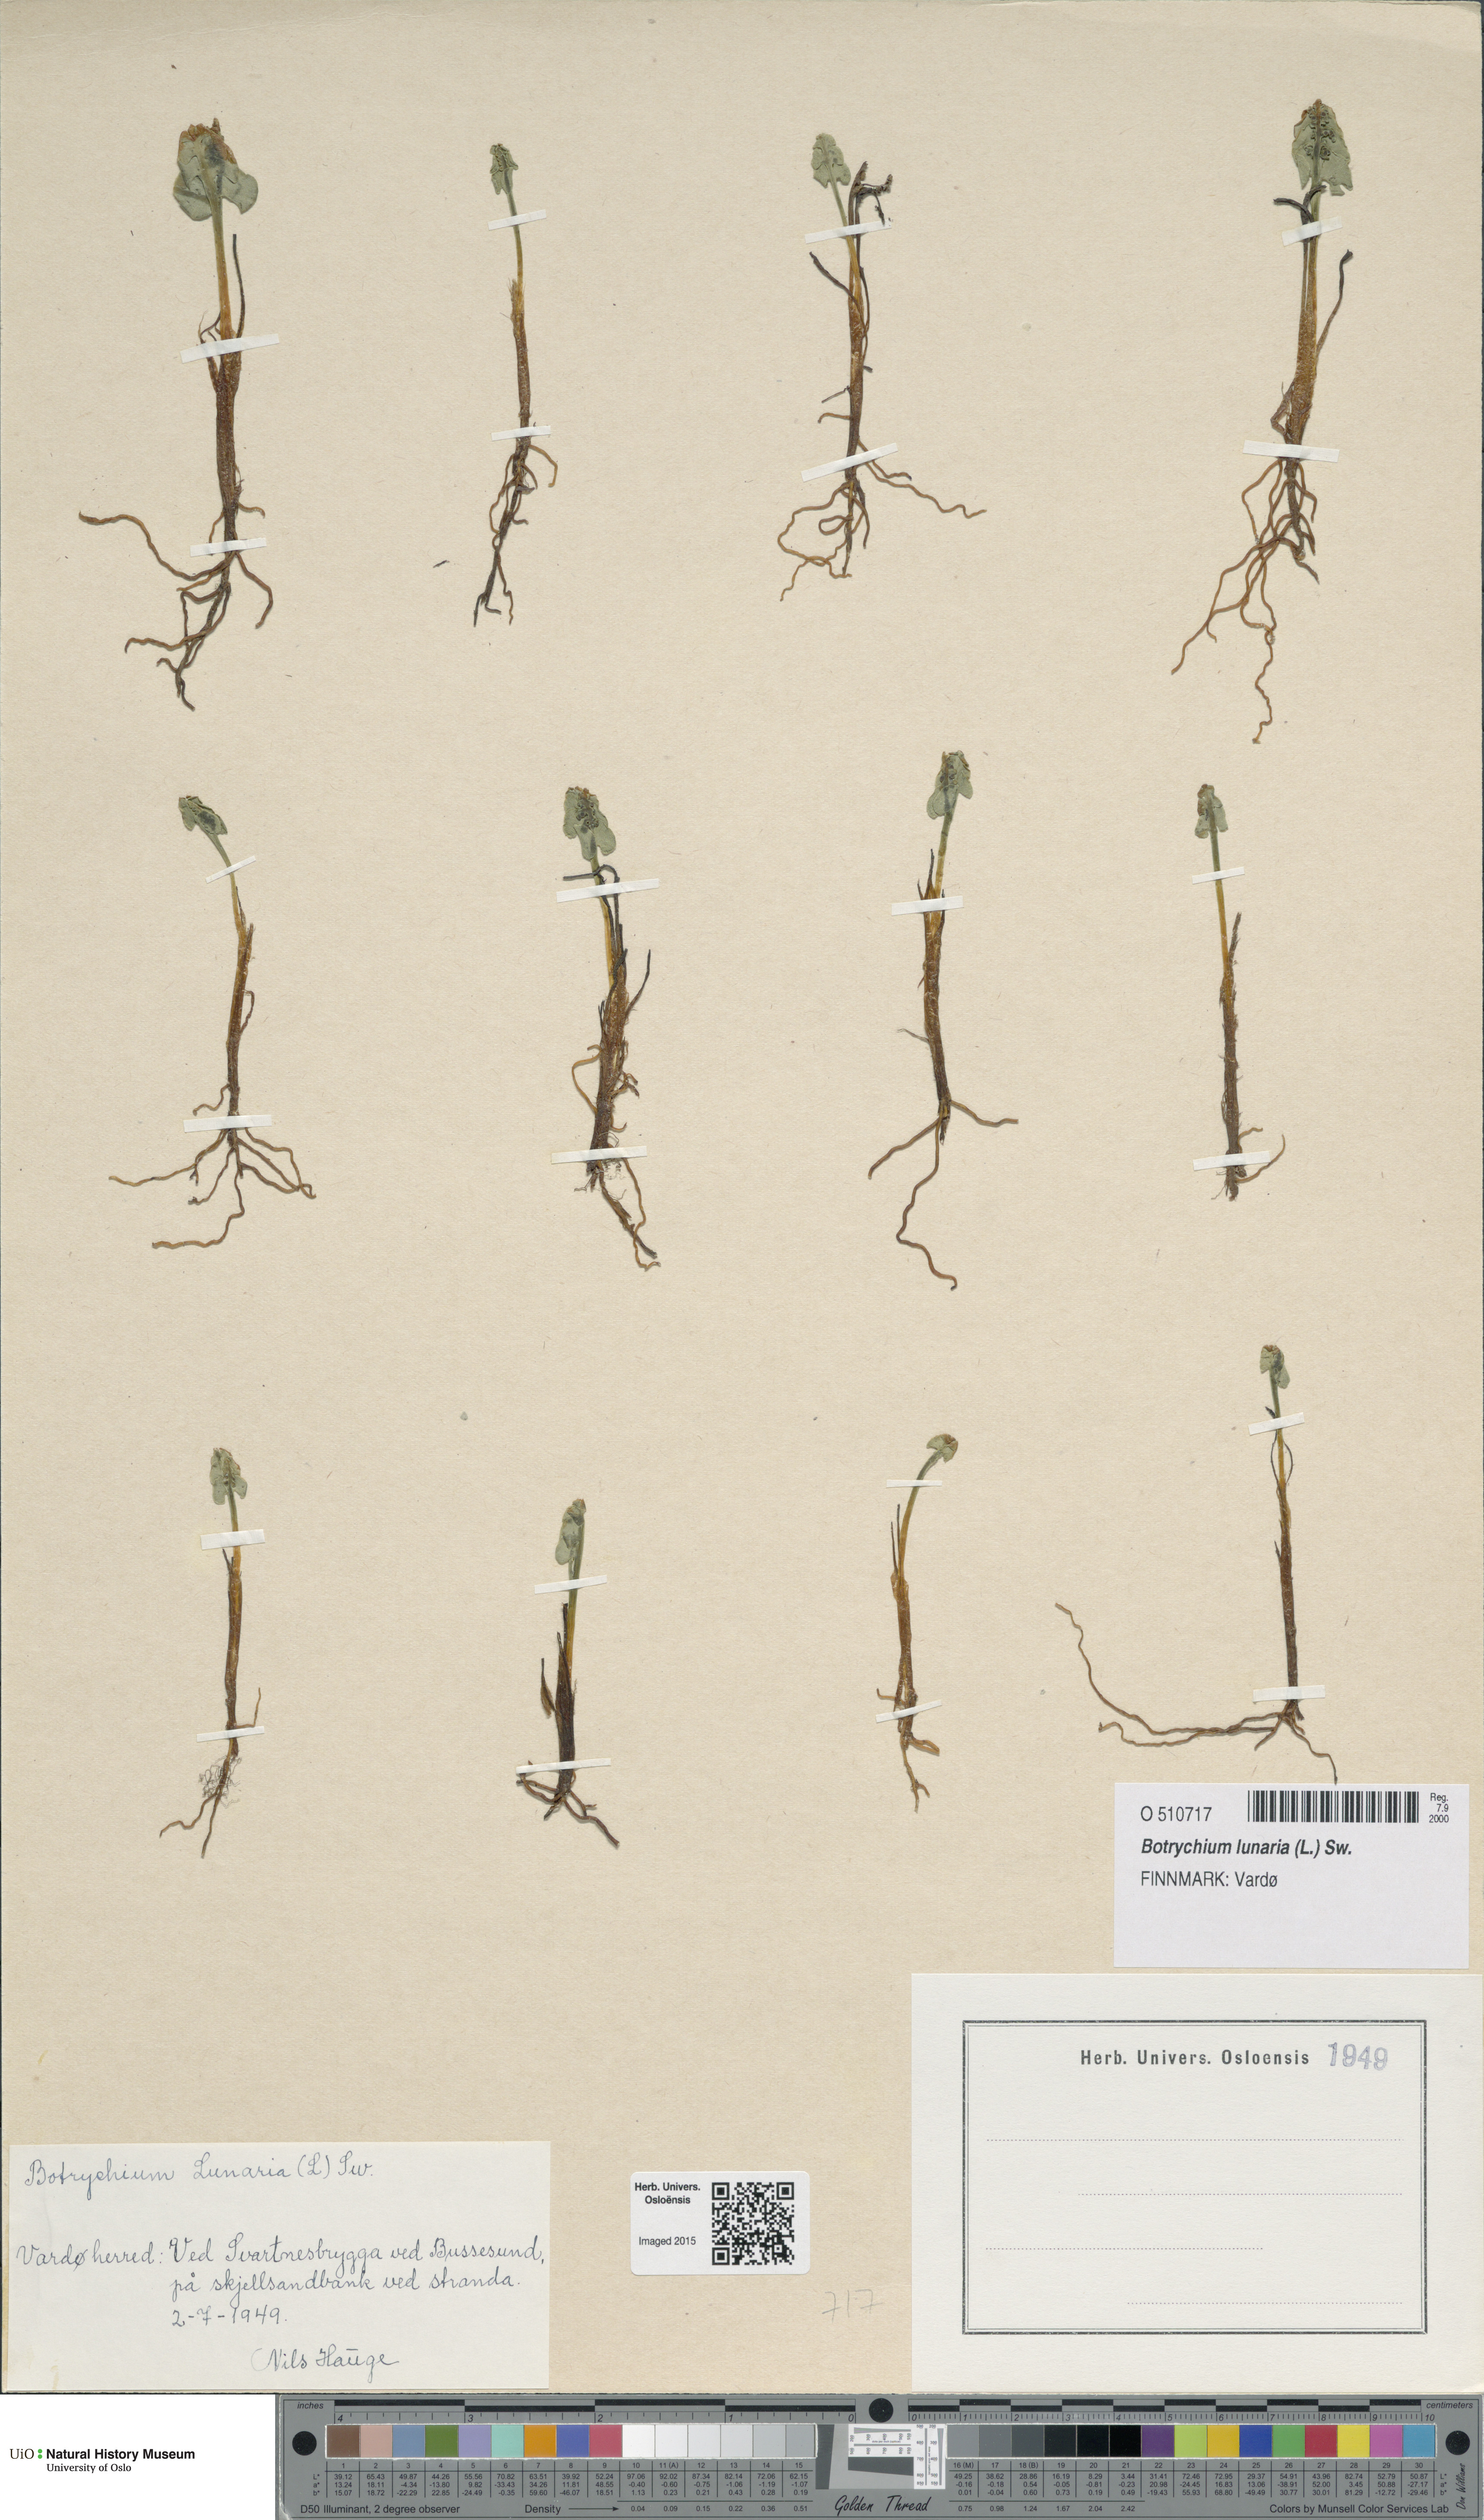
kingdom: Plantae
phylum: Tracheophyta
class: Polypodiopsida
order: Ophioglossales
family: Ophioglossaceae
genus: Botrychium
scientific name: Botrychium lunaria
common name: Moonwort
